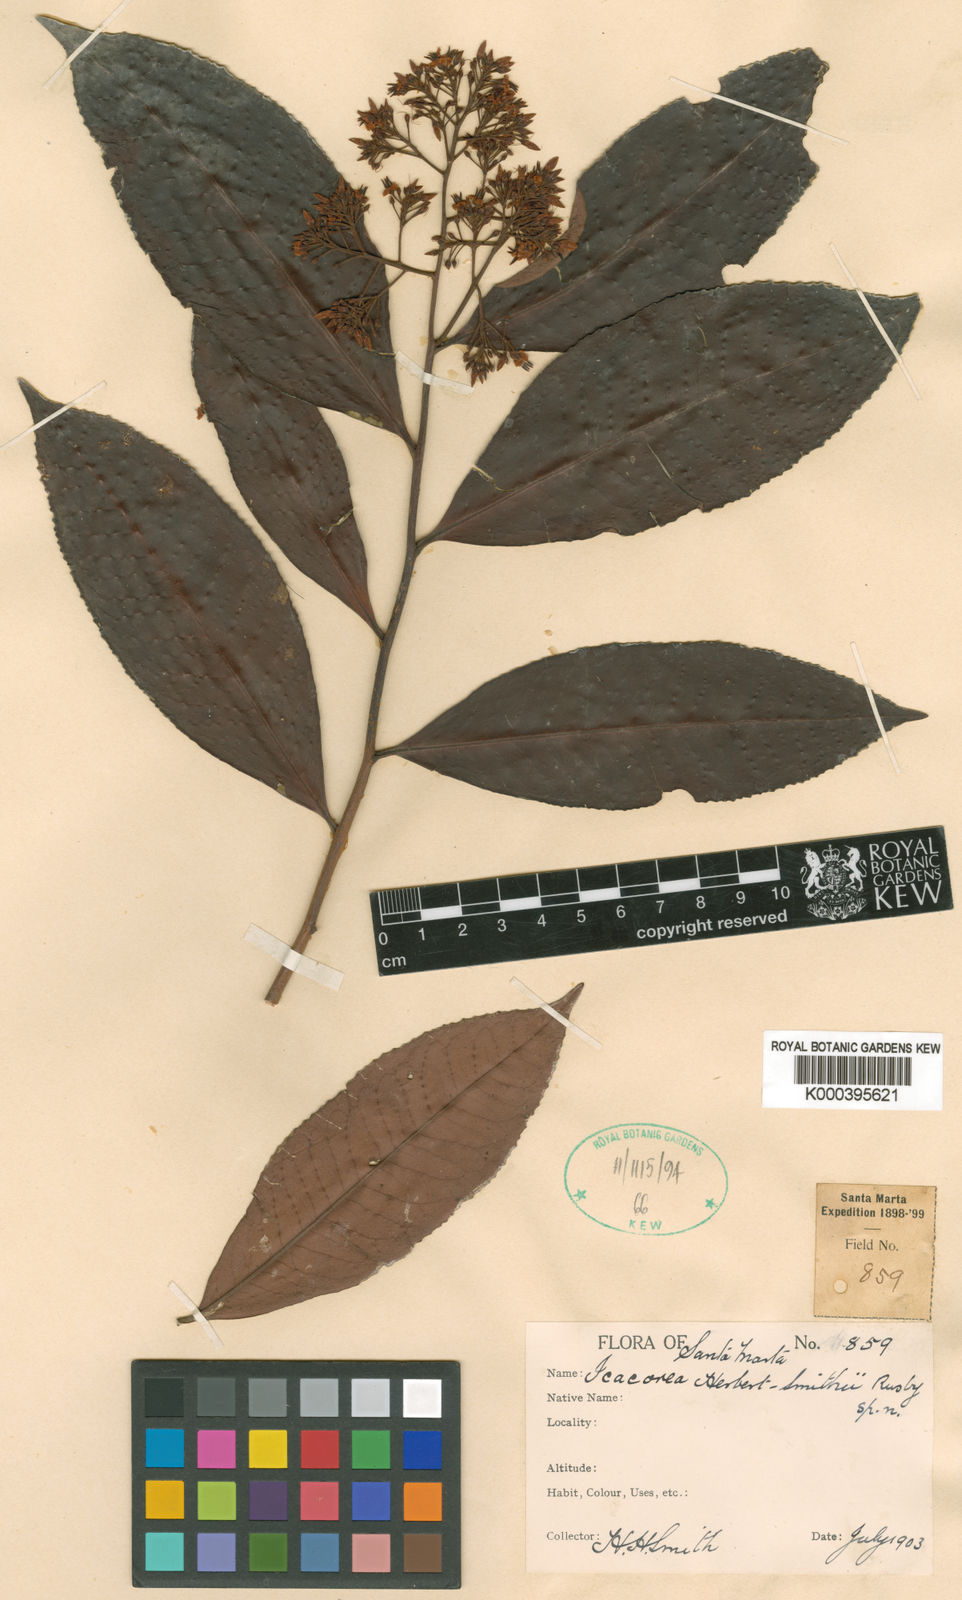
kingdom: Plantae
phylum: Tracheophyta
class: Magnoliopsida
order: Ericales
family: Primulaceae
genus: Ardisia
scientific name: Ardisia guianensis
